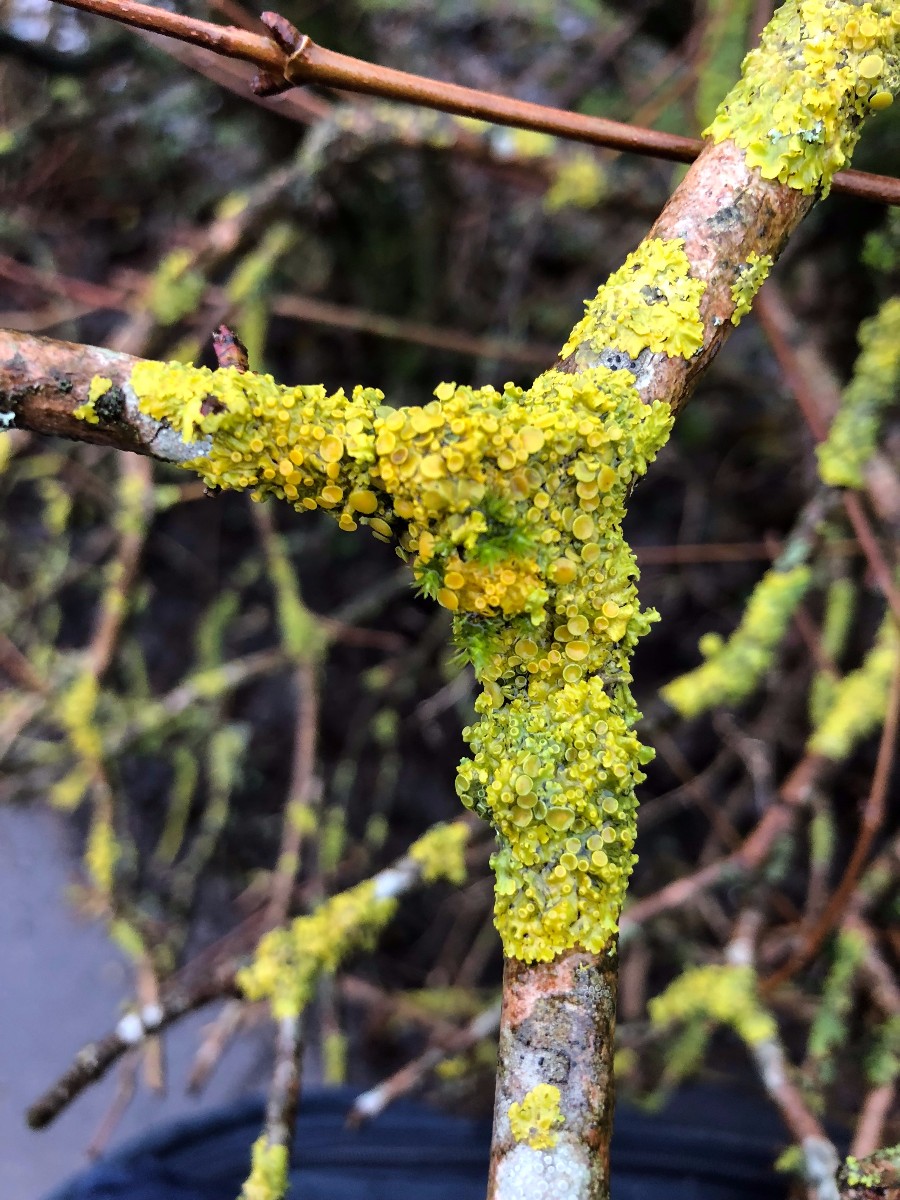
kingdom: Fungi
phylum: Ascomycota
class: Lecanoromycetes
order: Teloschistales
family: Teloschistaceae
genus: Xanthoria
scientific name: Xanthoria parietina
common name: almindelig væggelav
